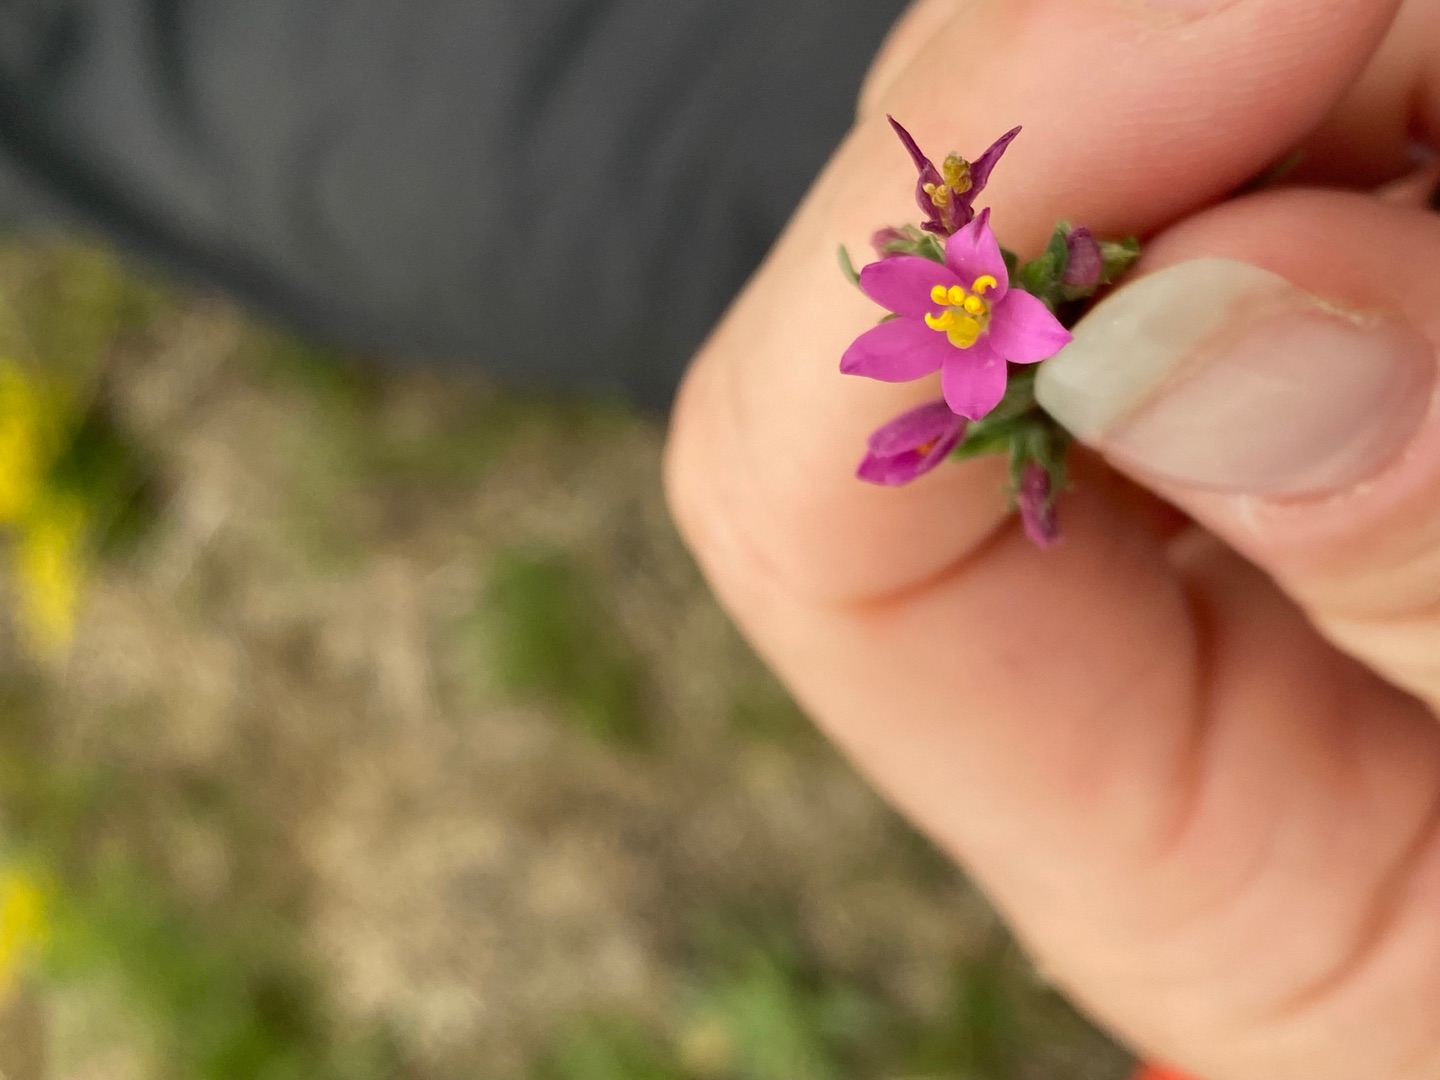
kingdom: Plantae
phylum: Tracheophyta
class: Magnoliopsida
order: Gentianales
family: Gentianaceae
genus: Centaurium
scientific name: Centaurium littorale
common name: Strand-tusindgylden
